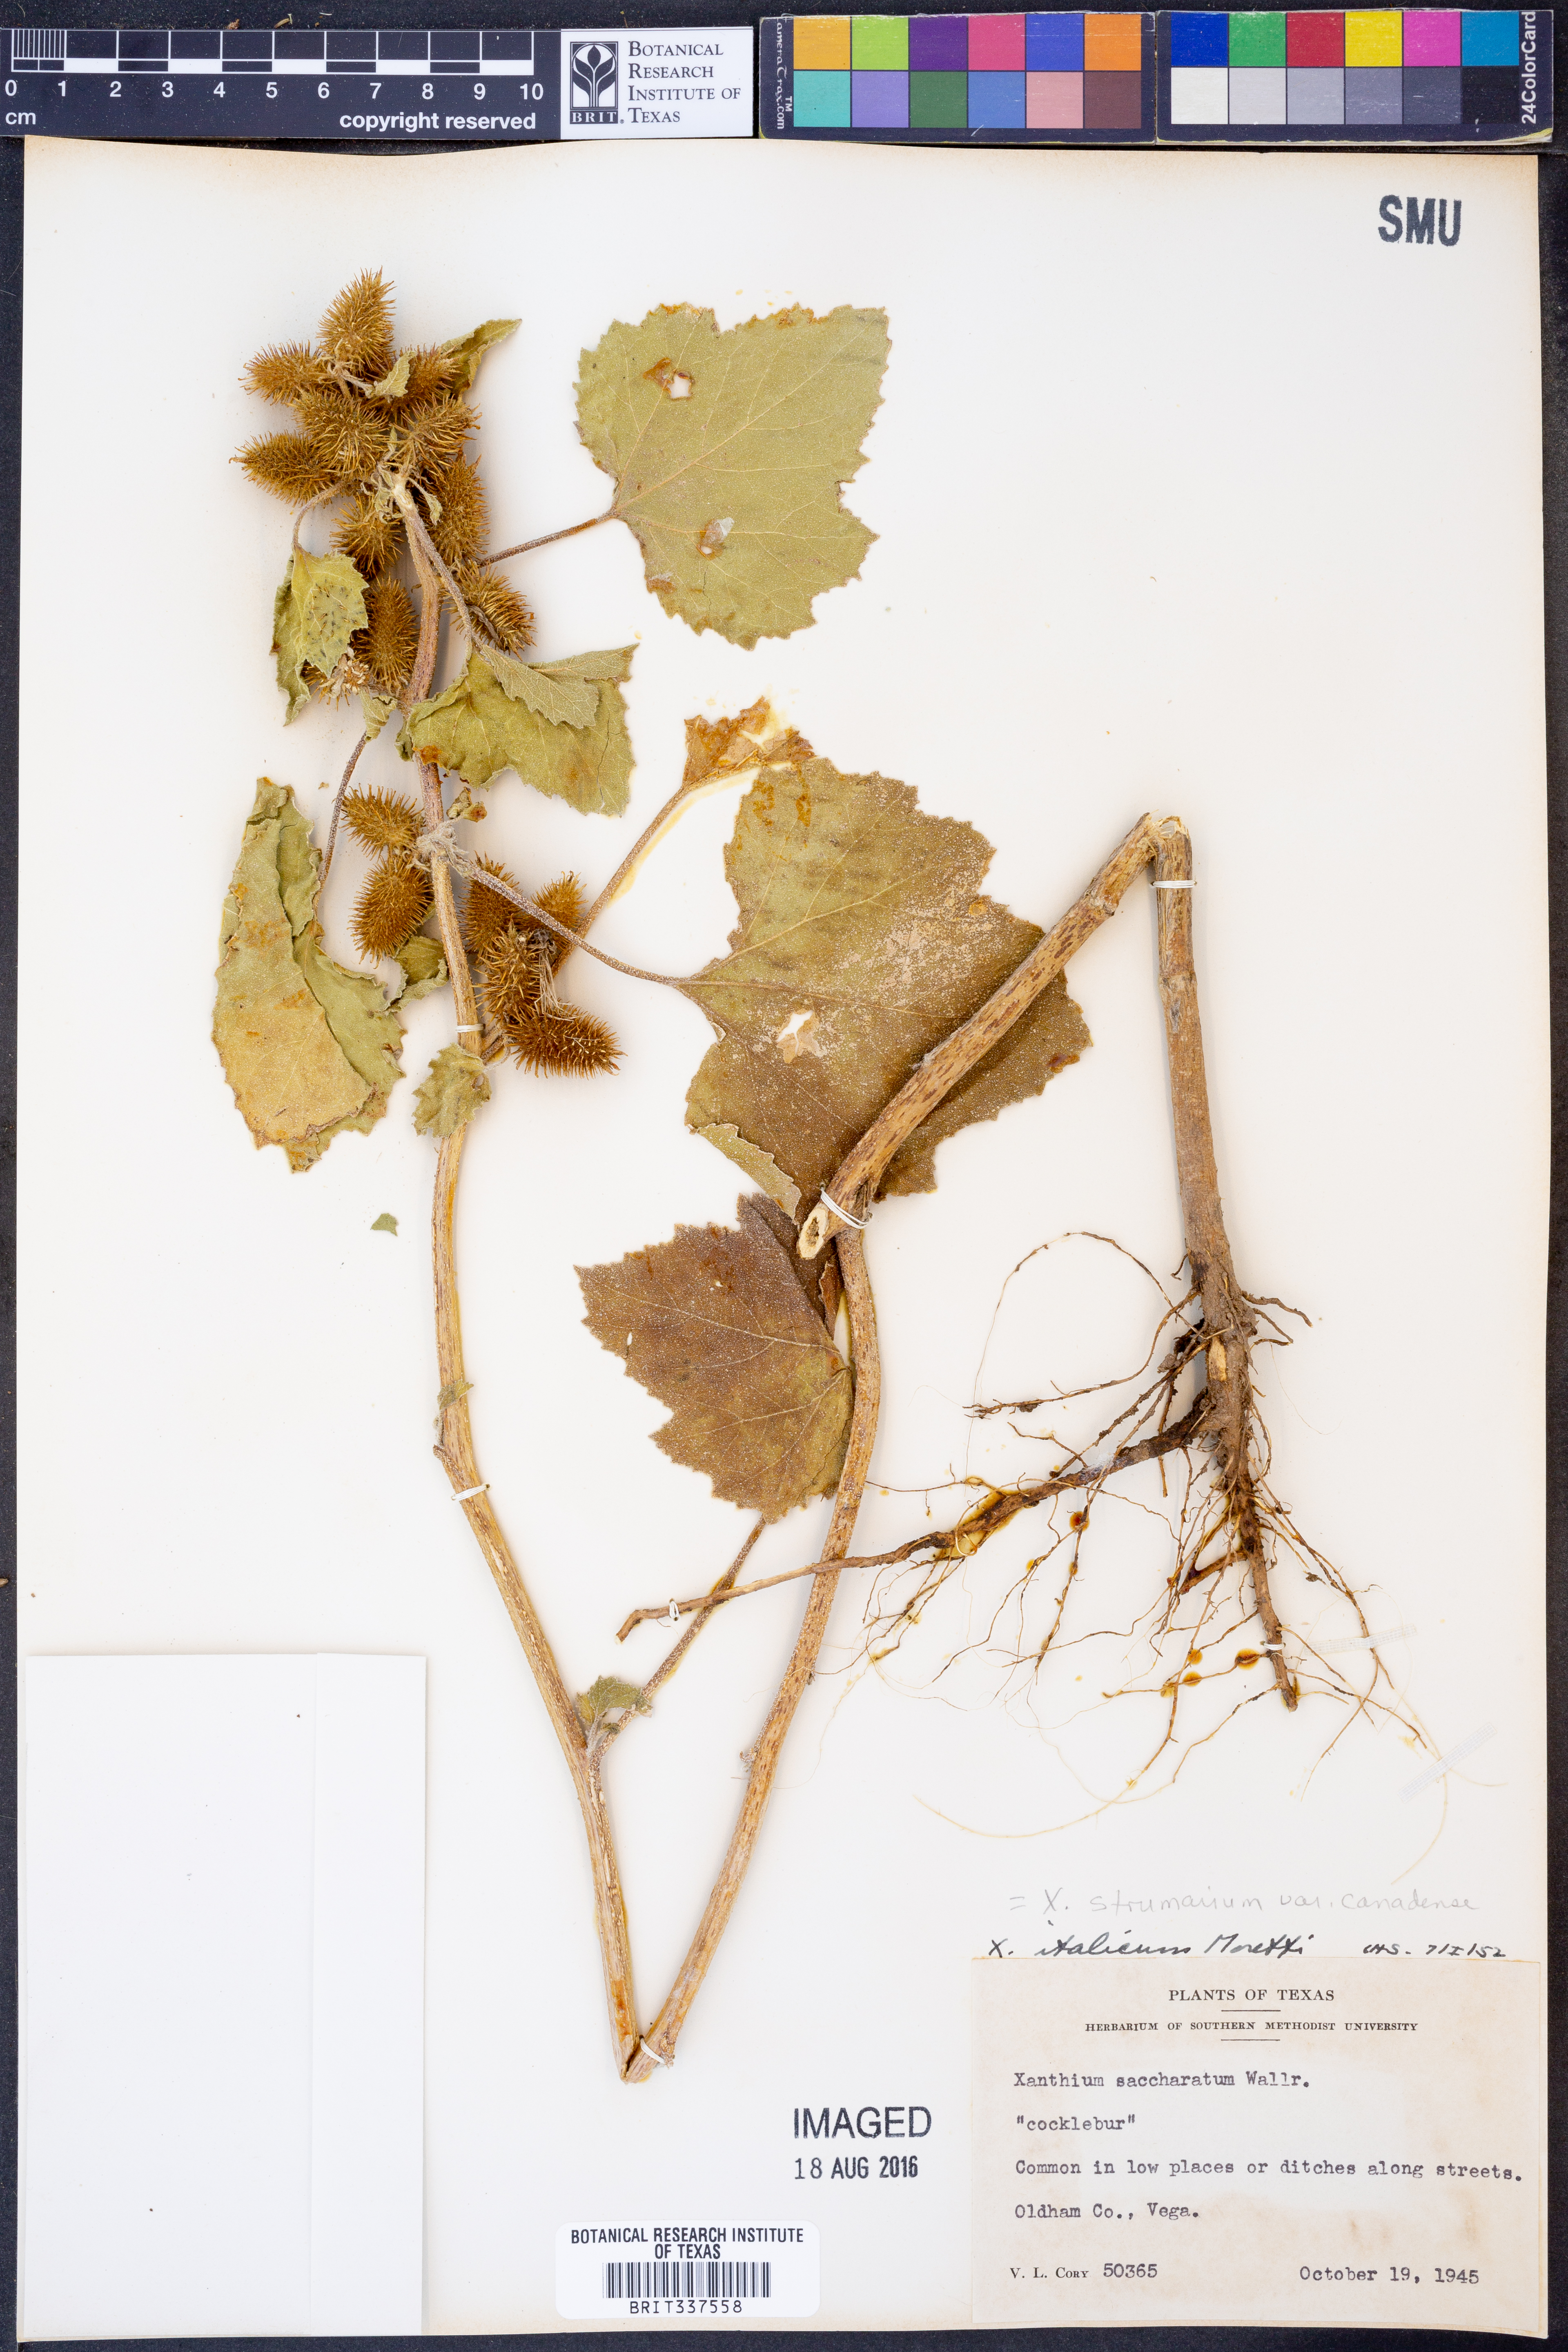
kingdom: Plantae
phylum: Tracheophyta
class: Magnoliopsida
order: Asterales
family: Asteraceae
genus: Xanthium
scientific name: Xanthium orientale
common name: Californian burr
